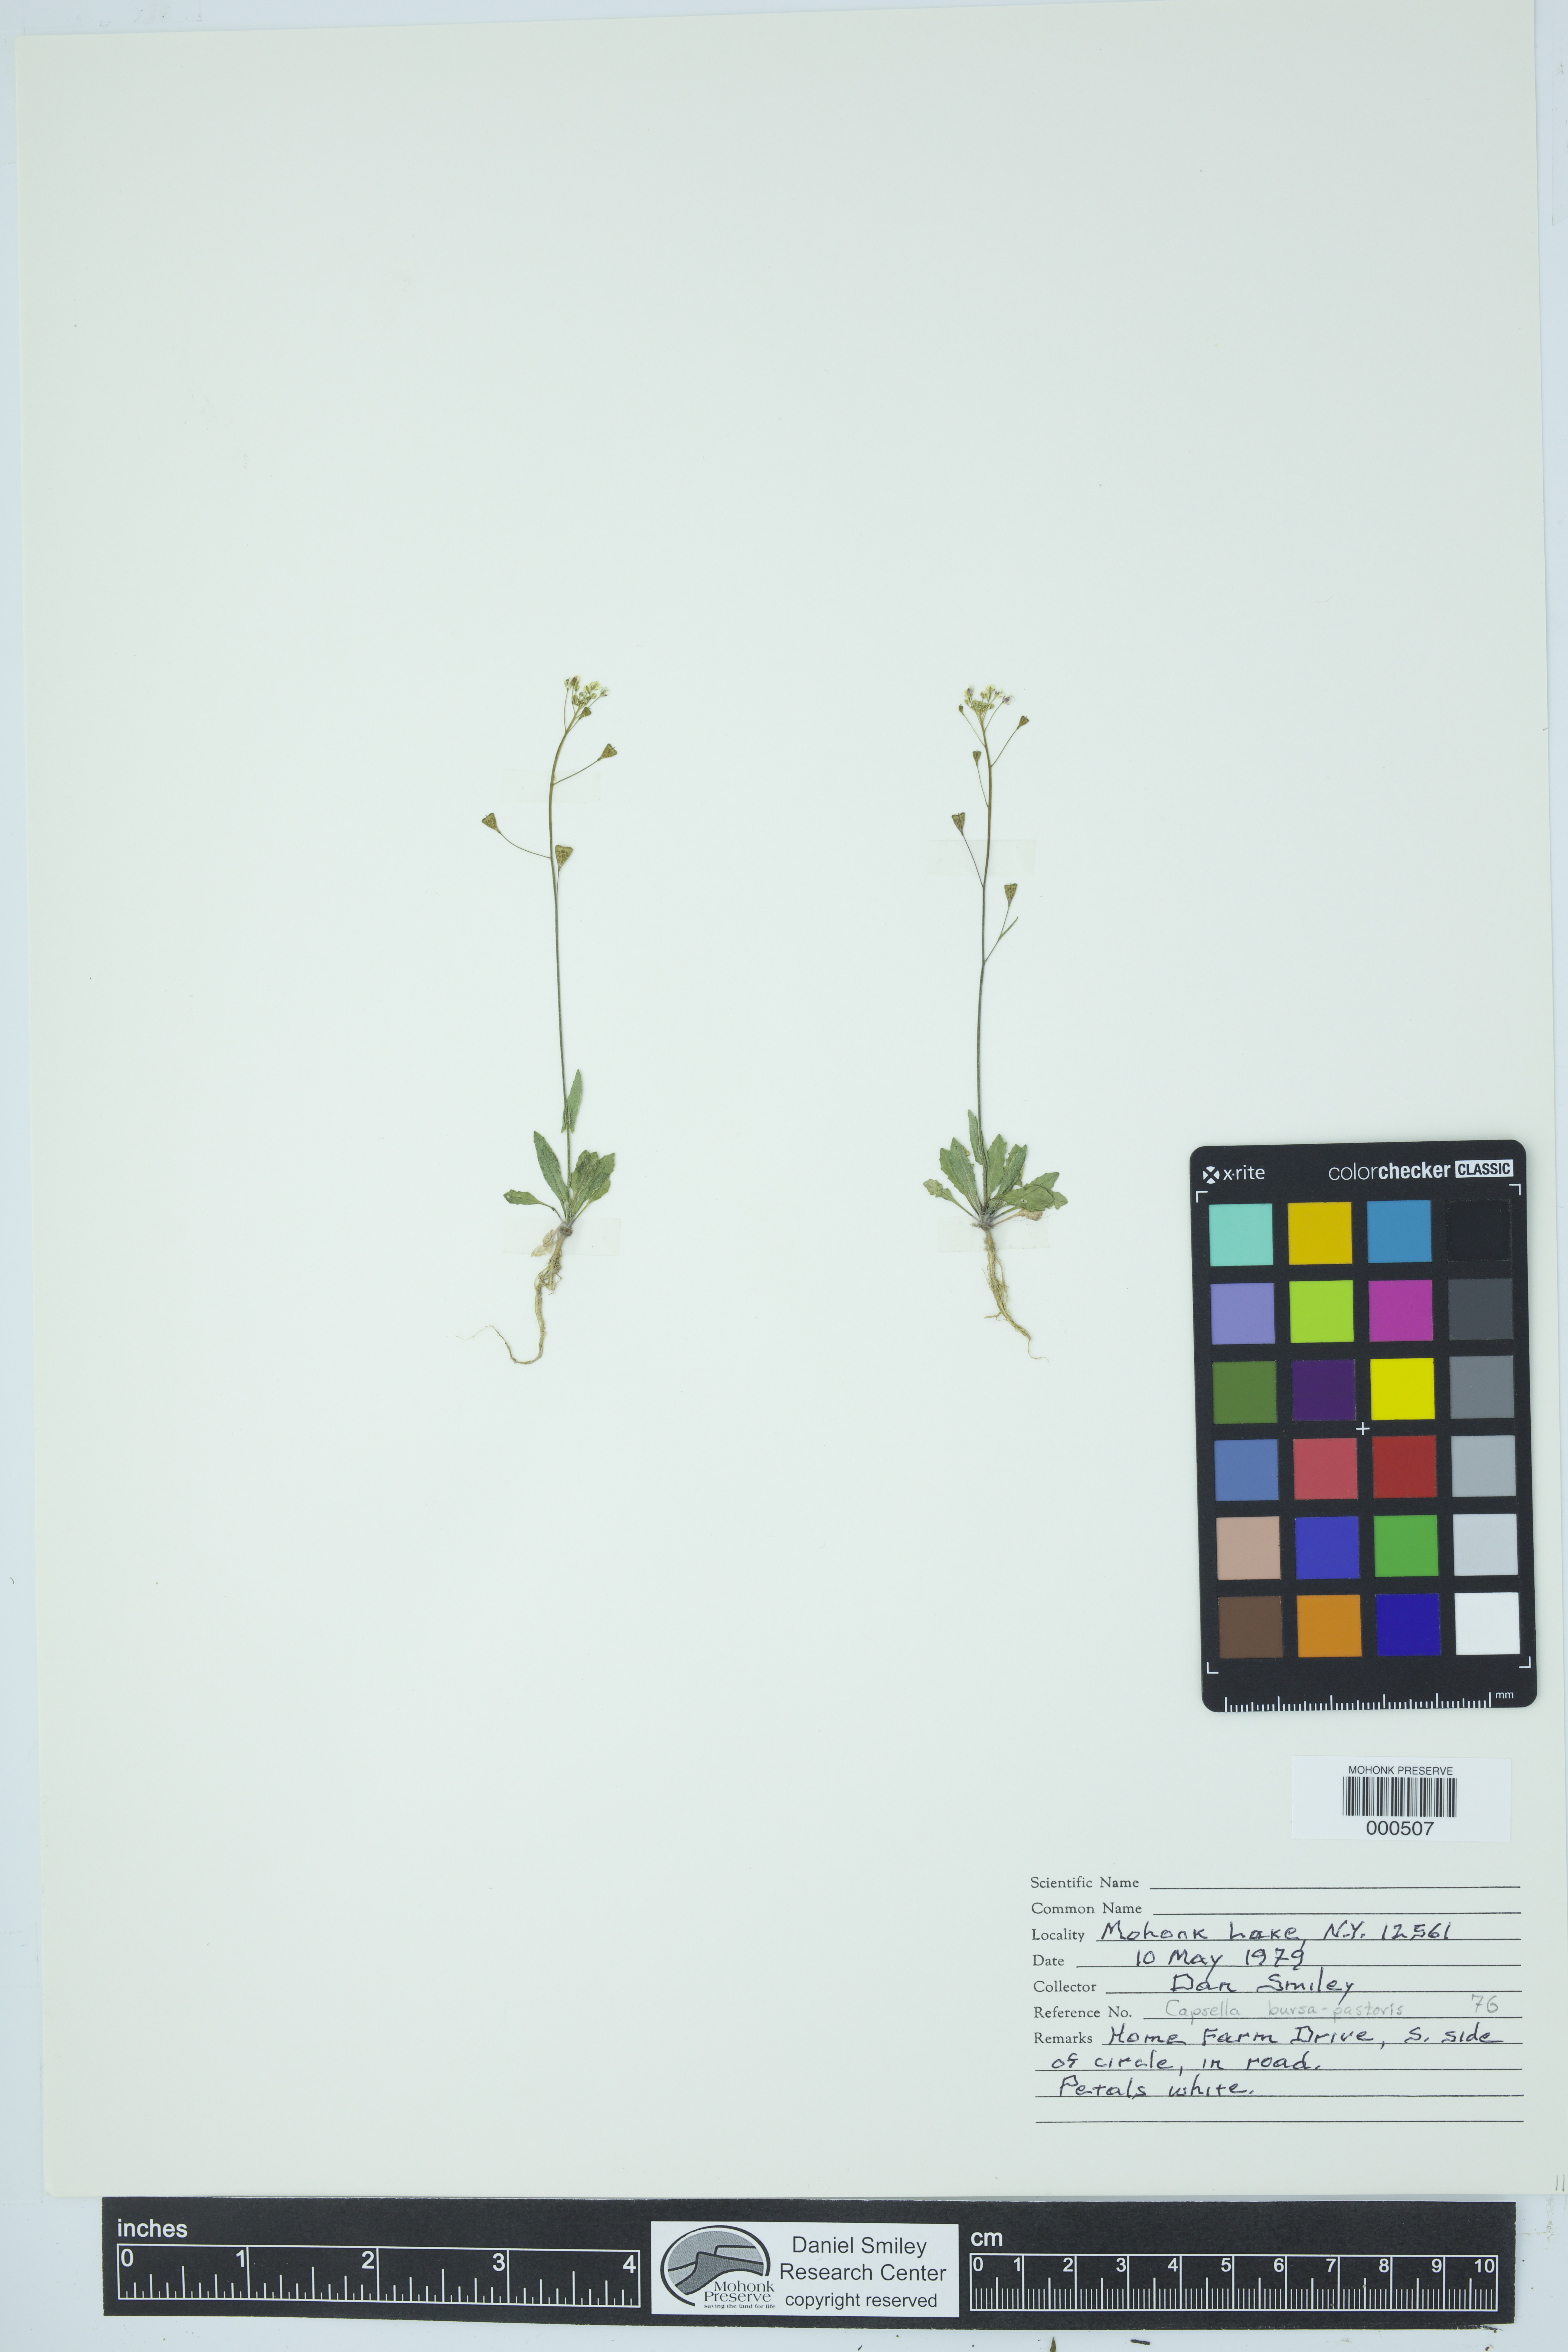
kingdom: Plantae
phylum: Tracheophyta
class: Magnoliopsida
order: Brassicales
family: Brassicaceae
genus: Capsella
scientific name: Capsella bursa-pastoris
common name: Shepherd's purse
